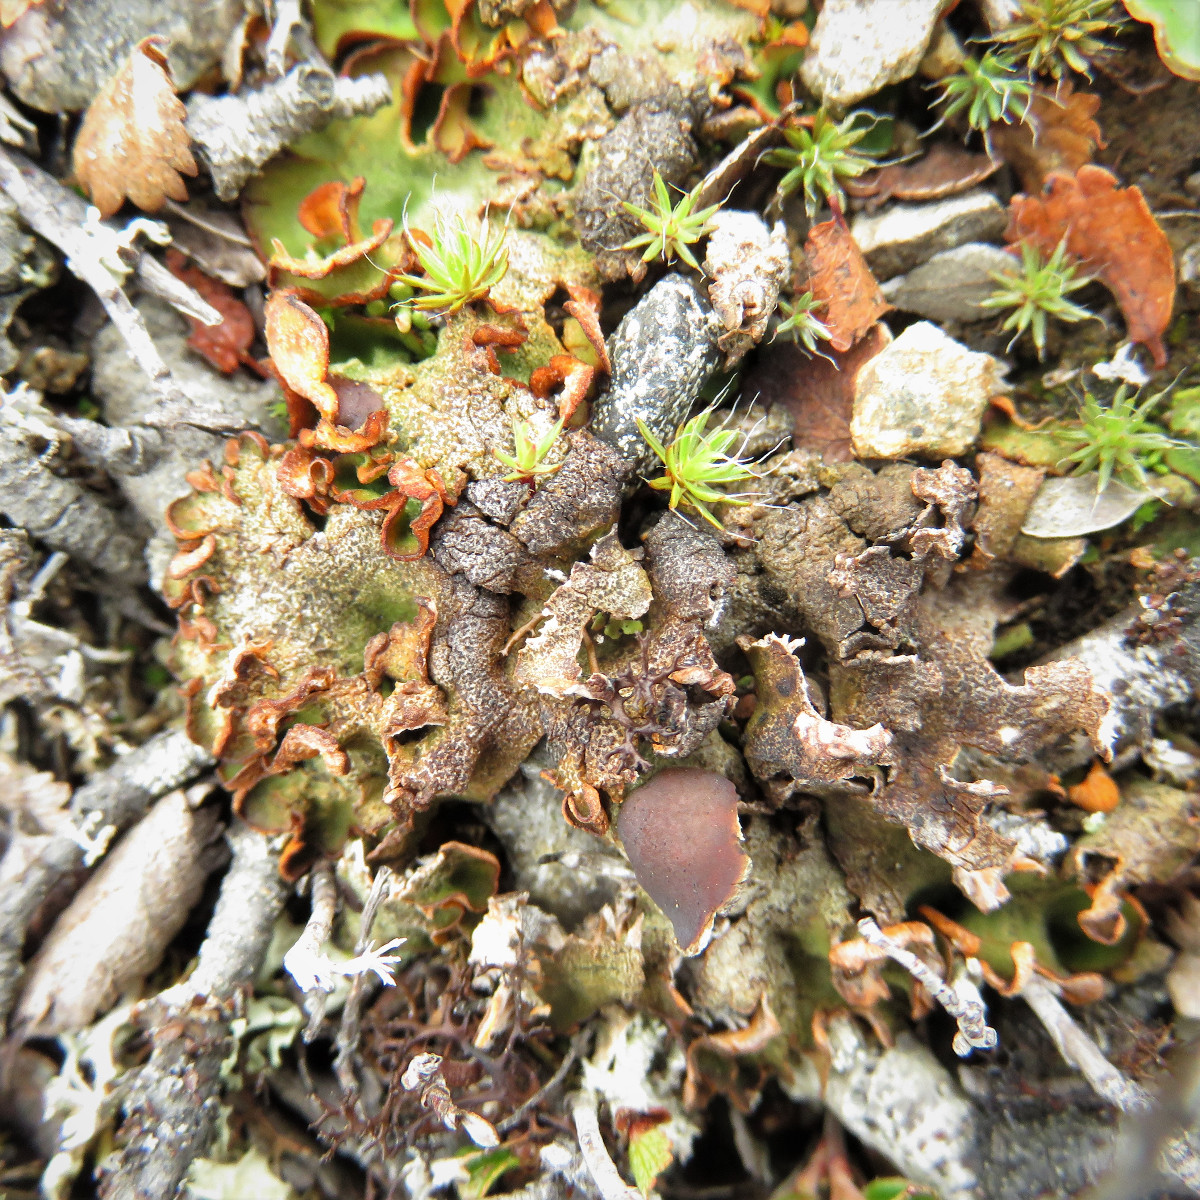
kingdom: Fungi
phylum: Ascomycota
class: Lecanoromycetes
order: Peltigerales
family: Peltigeraceae
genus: Solorina
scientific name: Solorina crocea
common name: Mountain saffron
